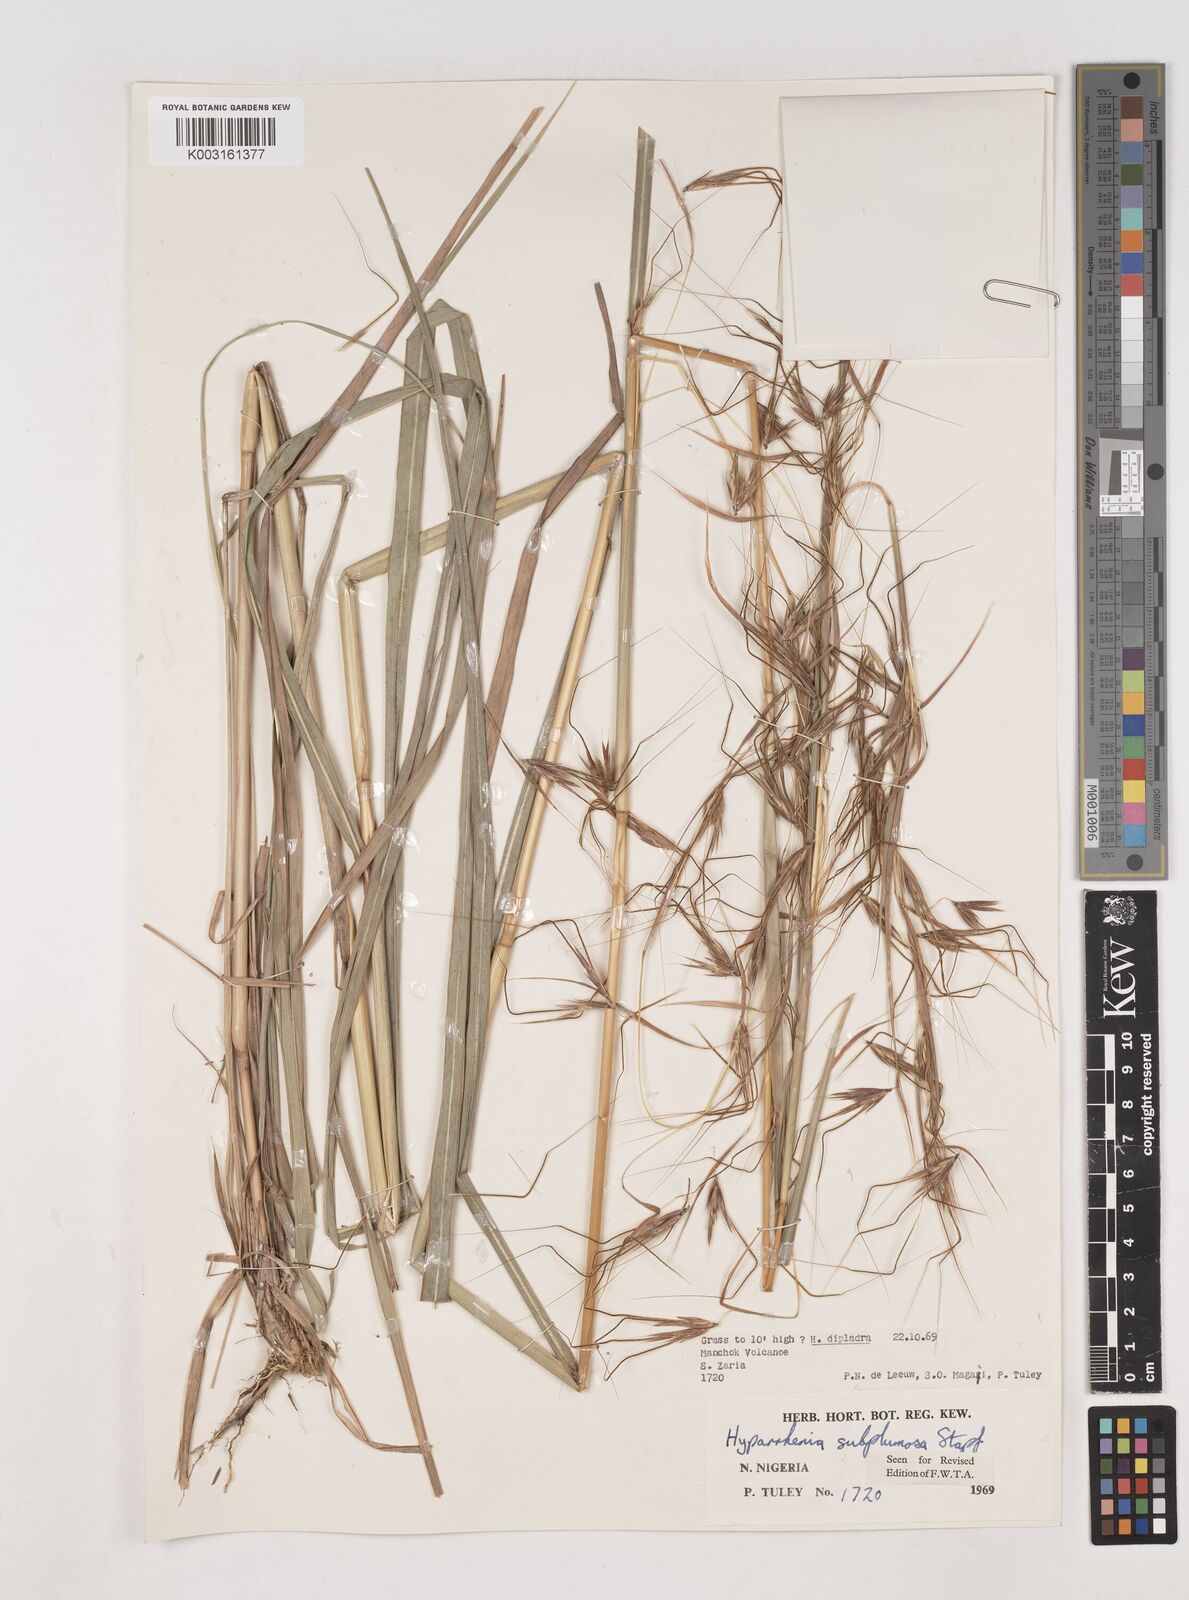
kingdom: Plantae
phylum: Tracheophyta
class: Liliopsida
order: Poales
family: Poaceae
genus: Hyparrhenia
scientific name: Hyparrhenia subplumosa
